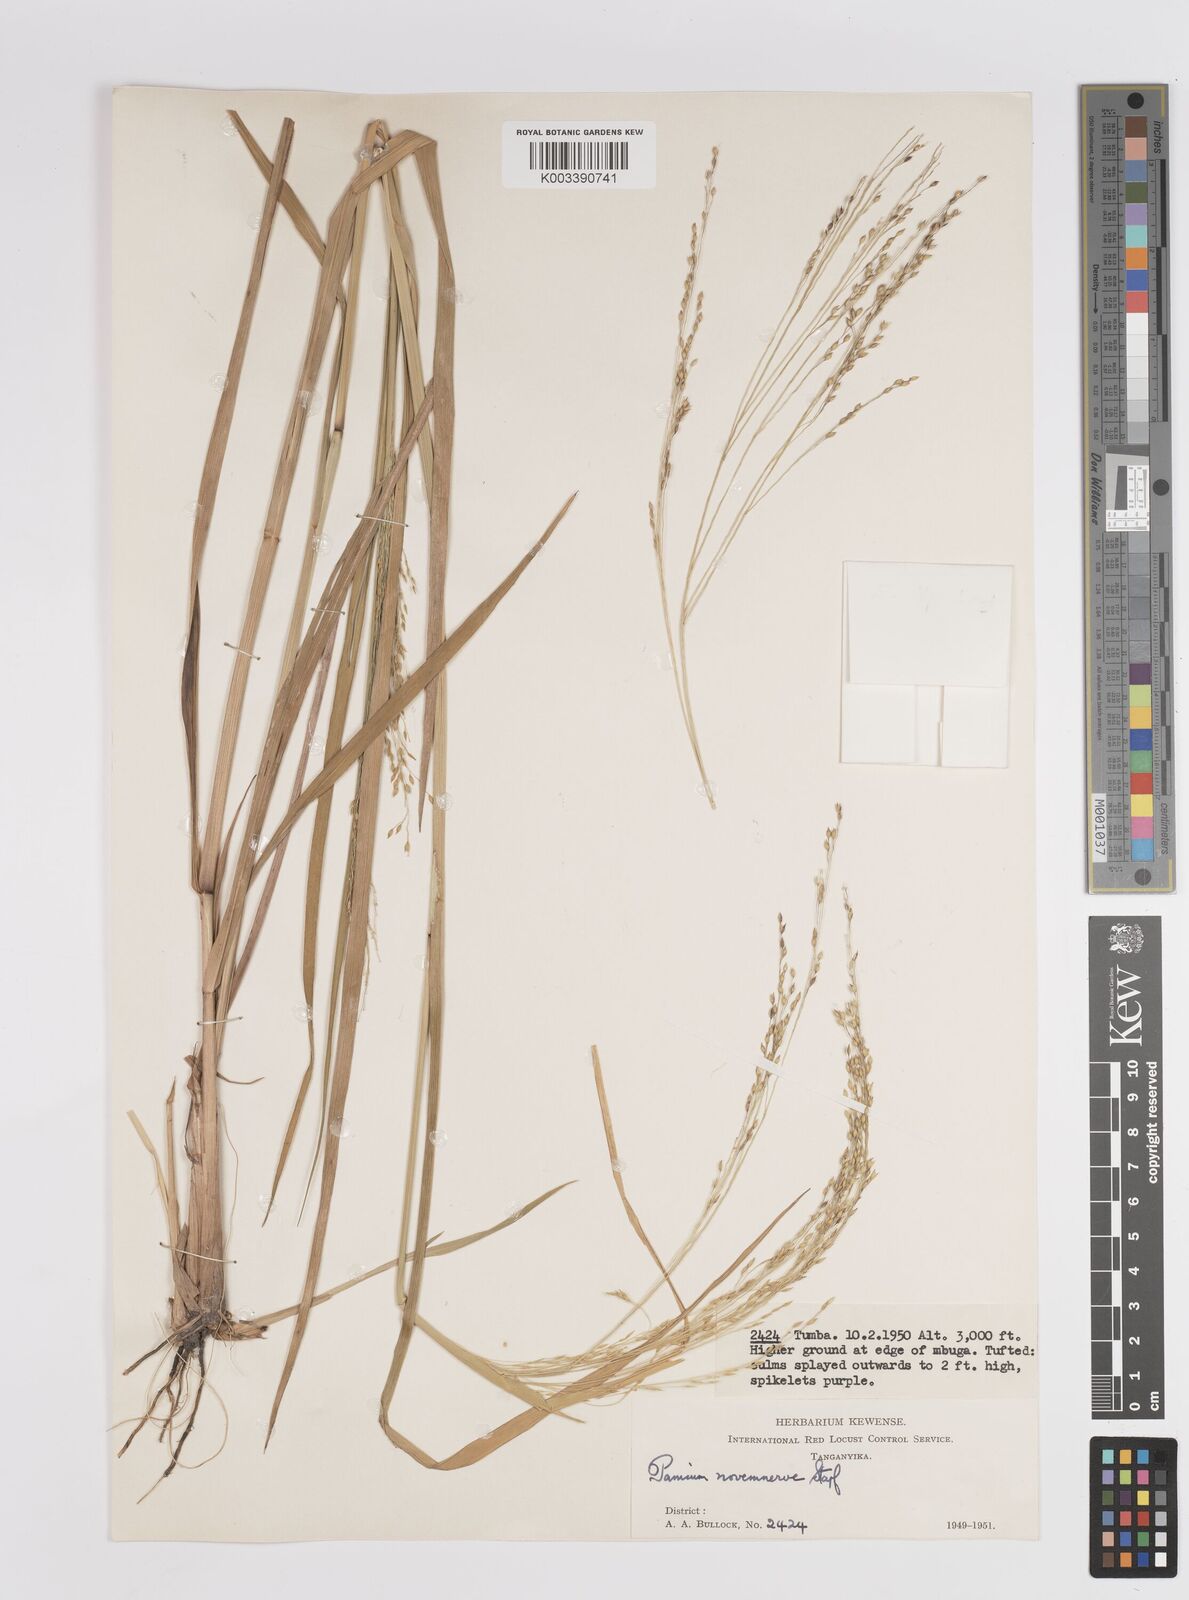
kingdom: Plantae
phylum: Tracheophyta
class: Liliopsida
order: Poales
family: Poaceae
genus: Panicum
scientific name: Panicum porphyrrhizos
